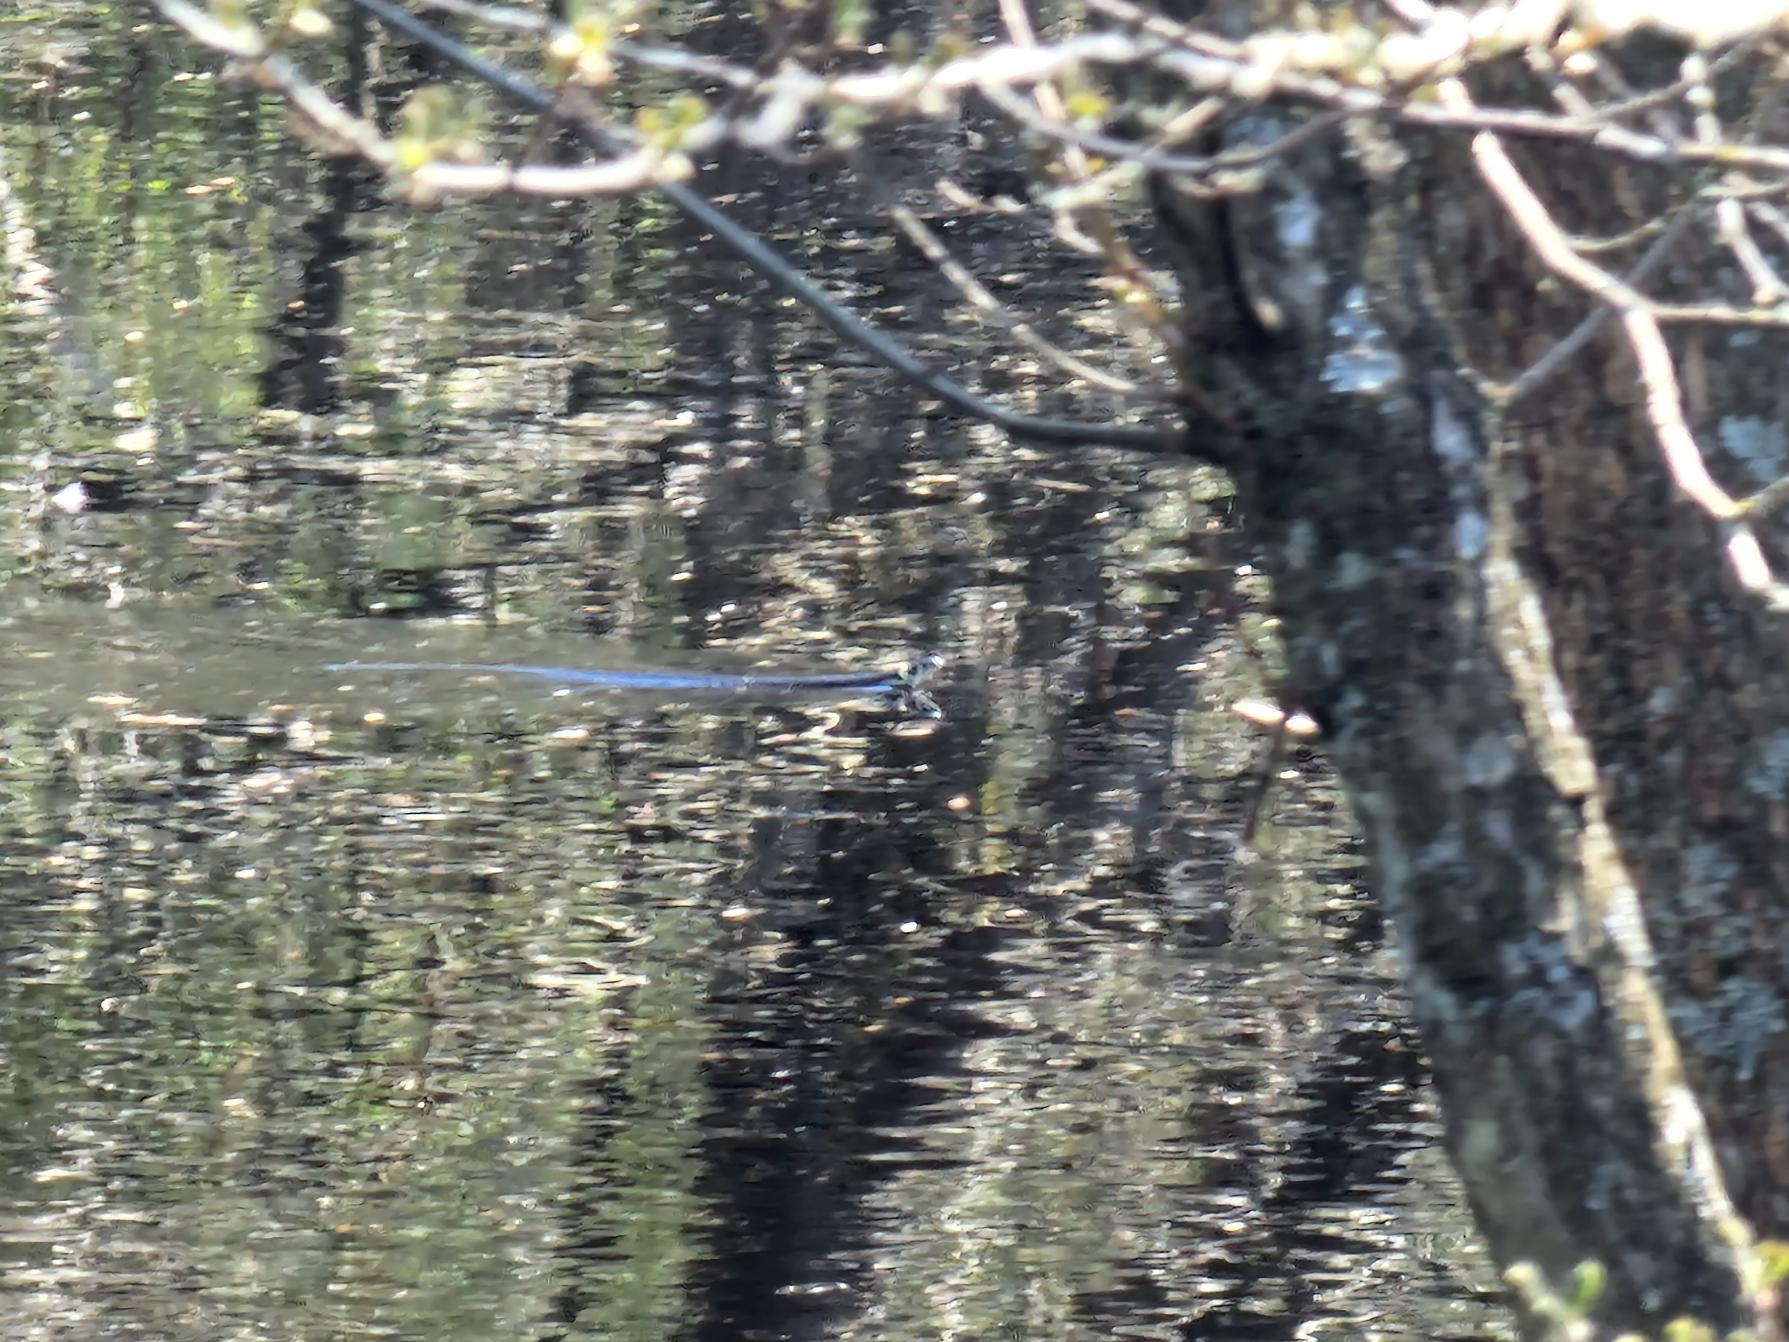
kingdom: Animalia
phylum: Chordata
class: Squamata
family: Colubridae
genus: Natrix
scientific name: Natrix natrix
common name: Snog
